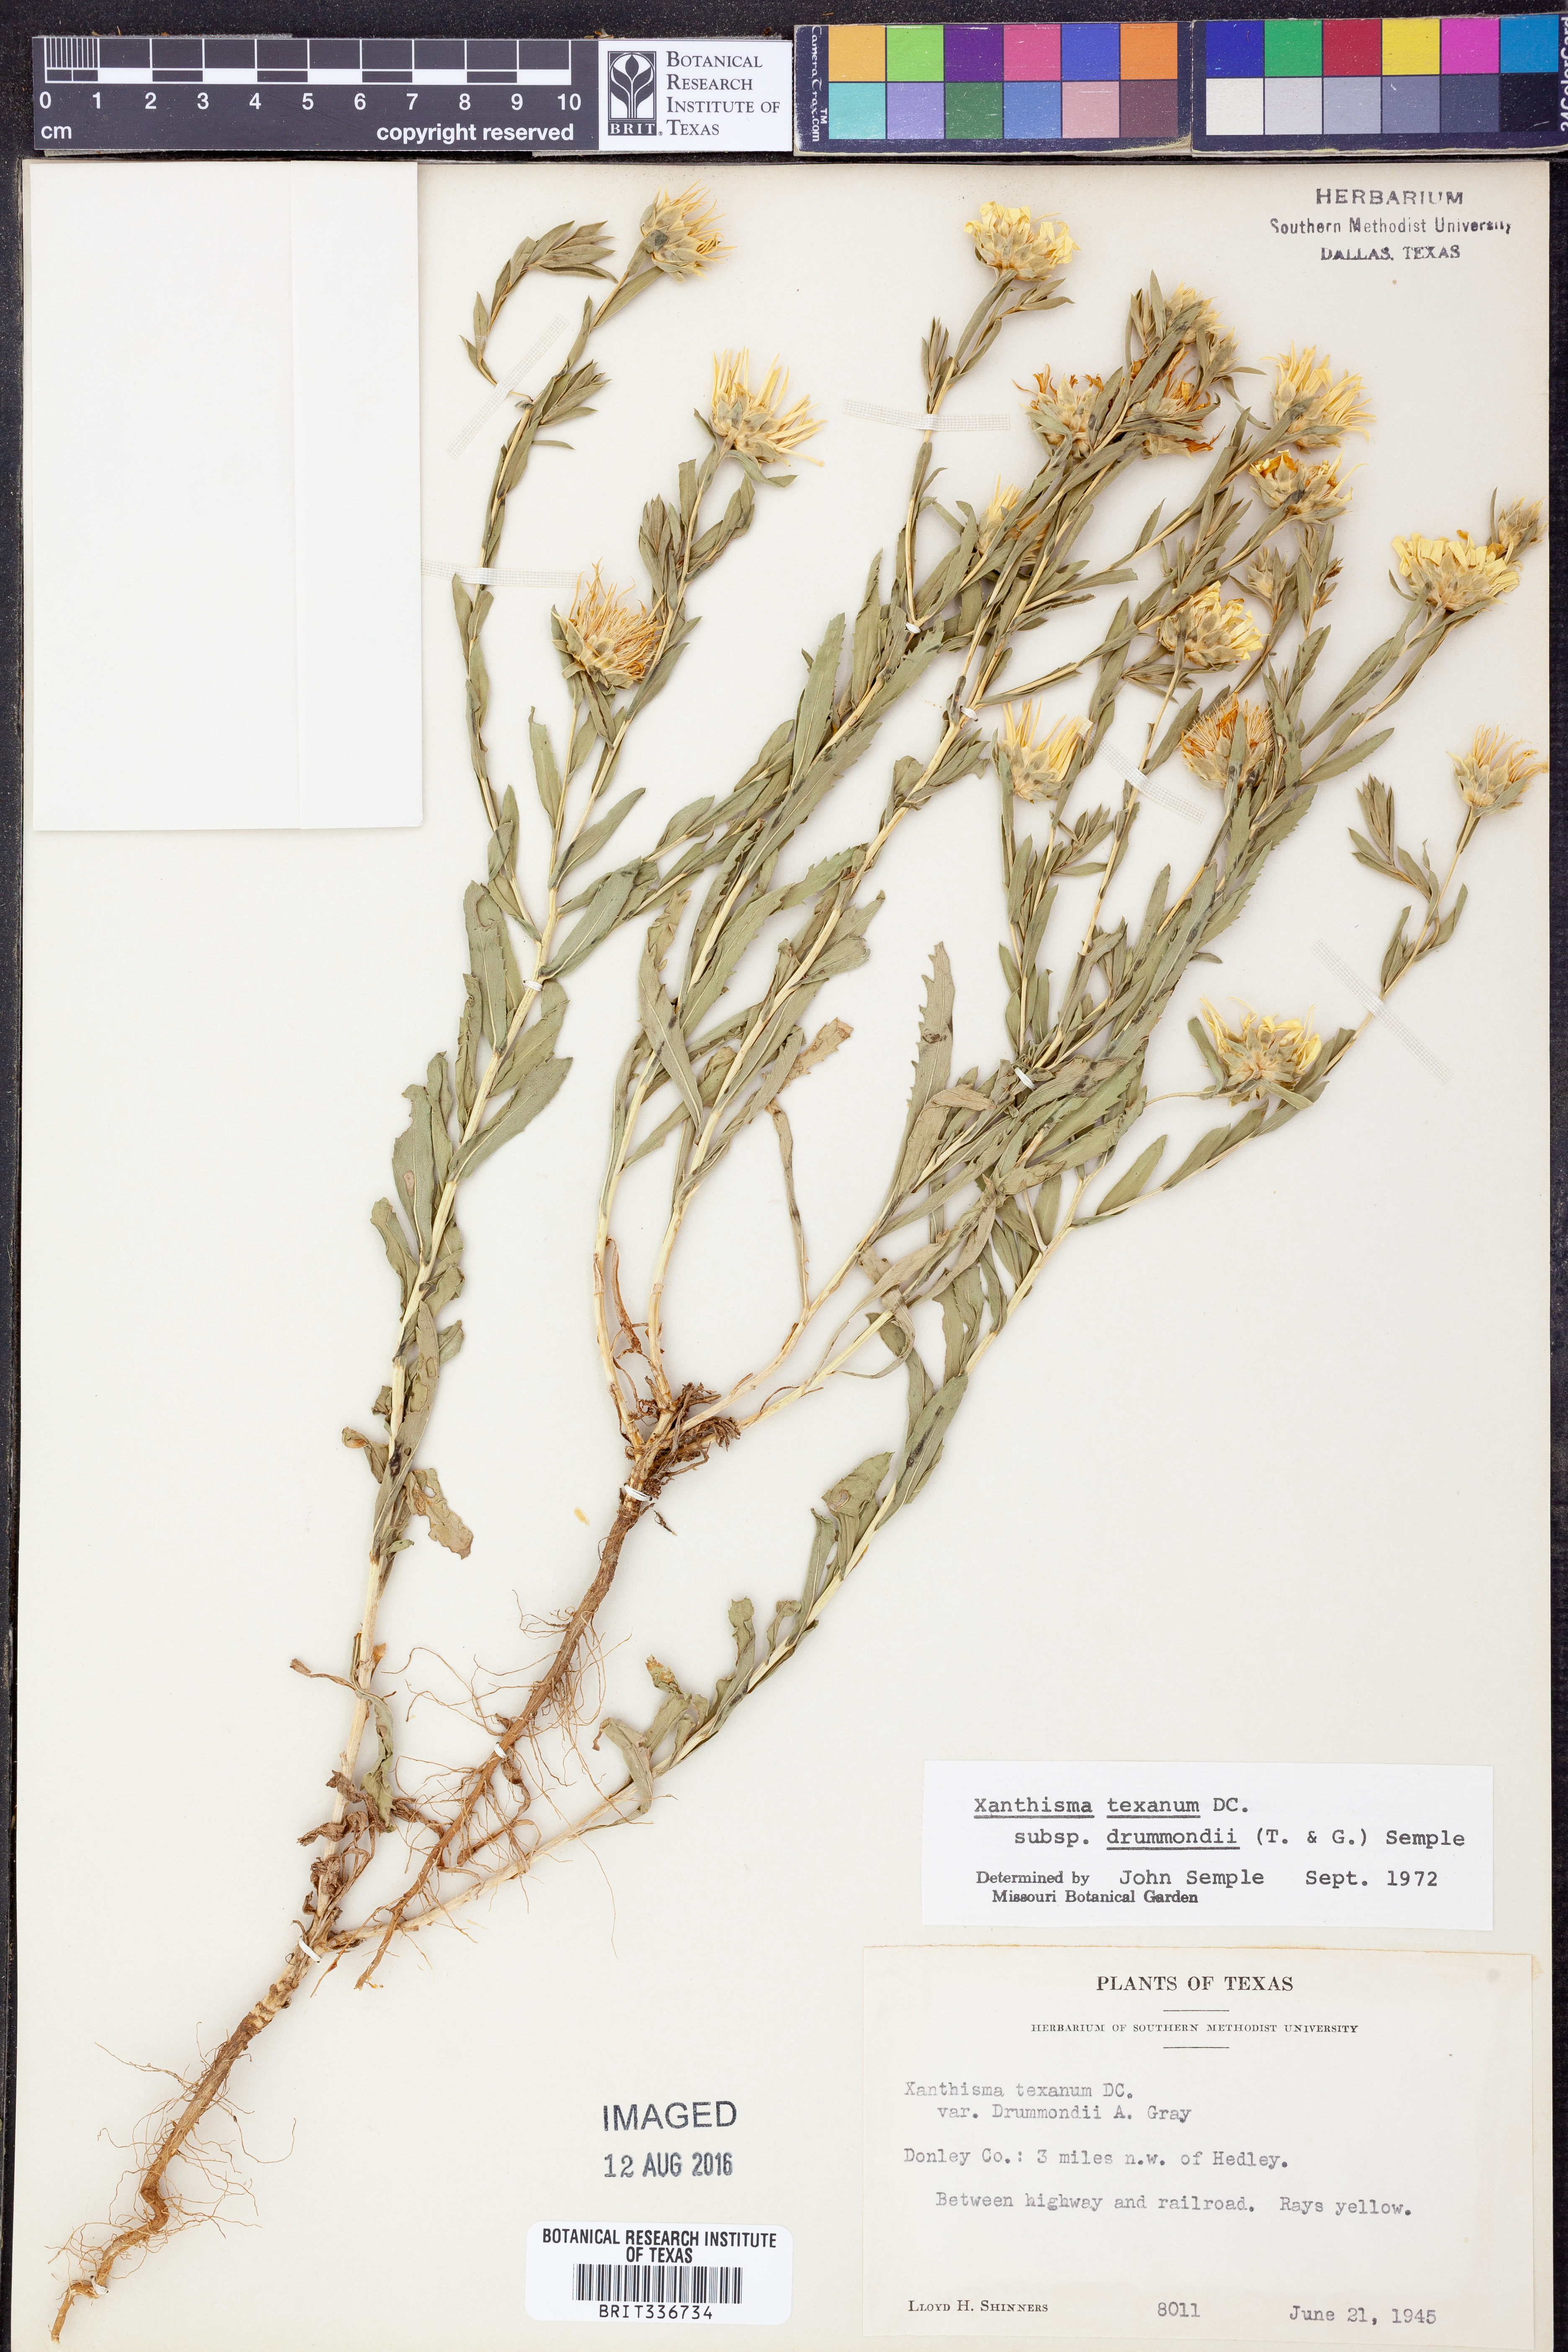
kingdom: Plantae
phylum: Tracheophyta
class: Magnoliopsida
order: Asterales
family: Asteraceae
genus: Xanthisma
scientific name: Xanthisma texanum
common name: Texas sleepy daisy
